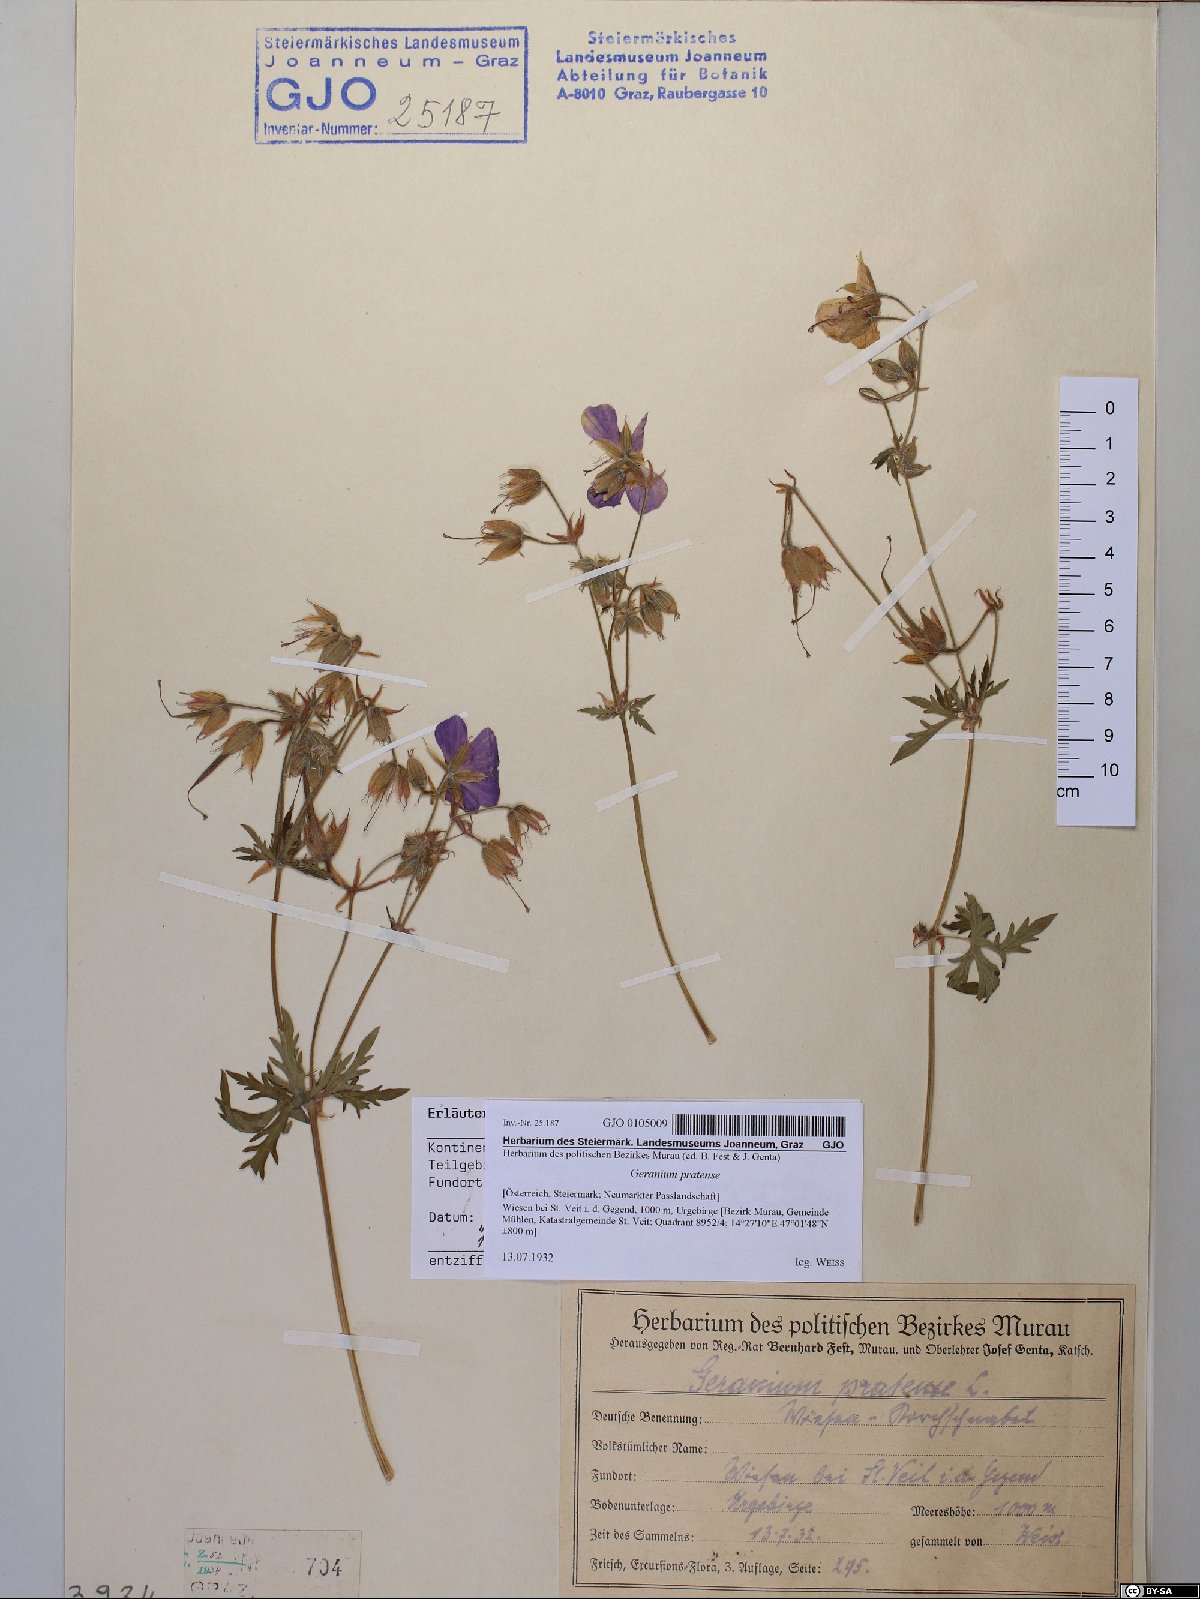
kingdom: Plantae
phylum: Tracheophyta
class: Magnoliopsida
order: Geraniales
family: Geraniaceae
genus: Geranium
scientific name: Geranium pratense
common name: Meadow crane's-bill
